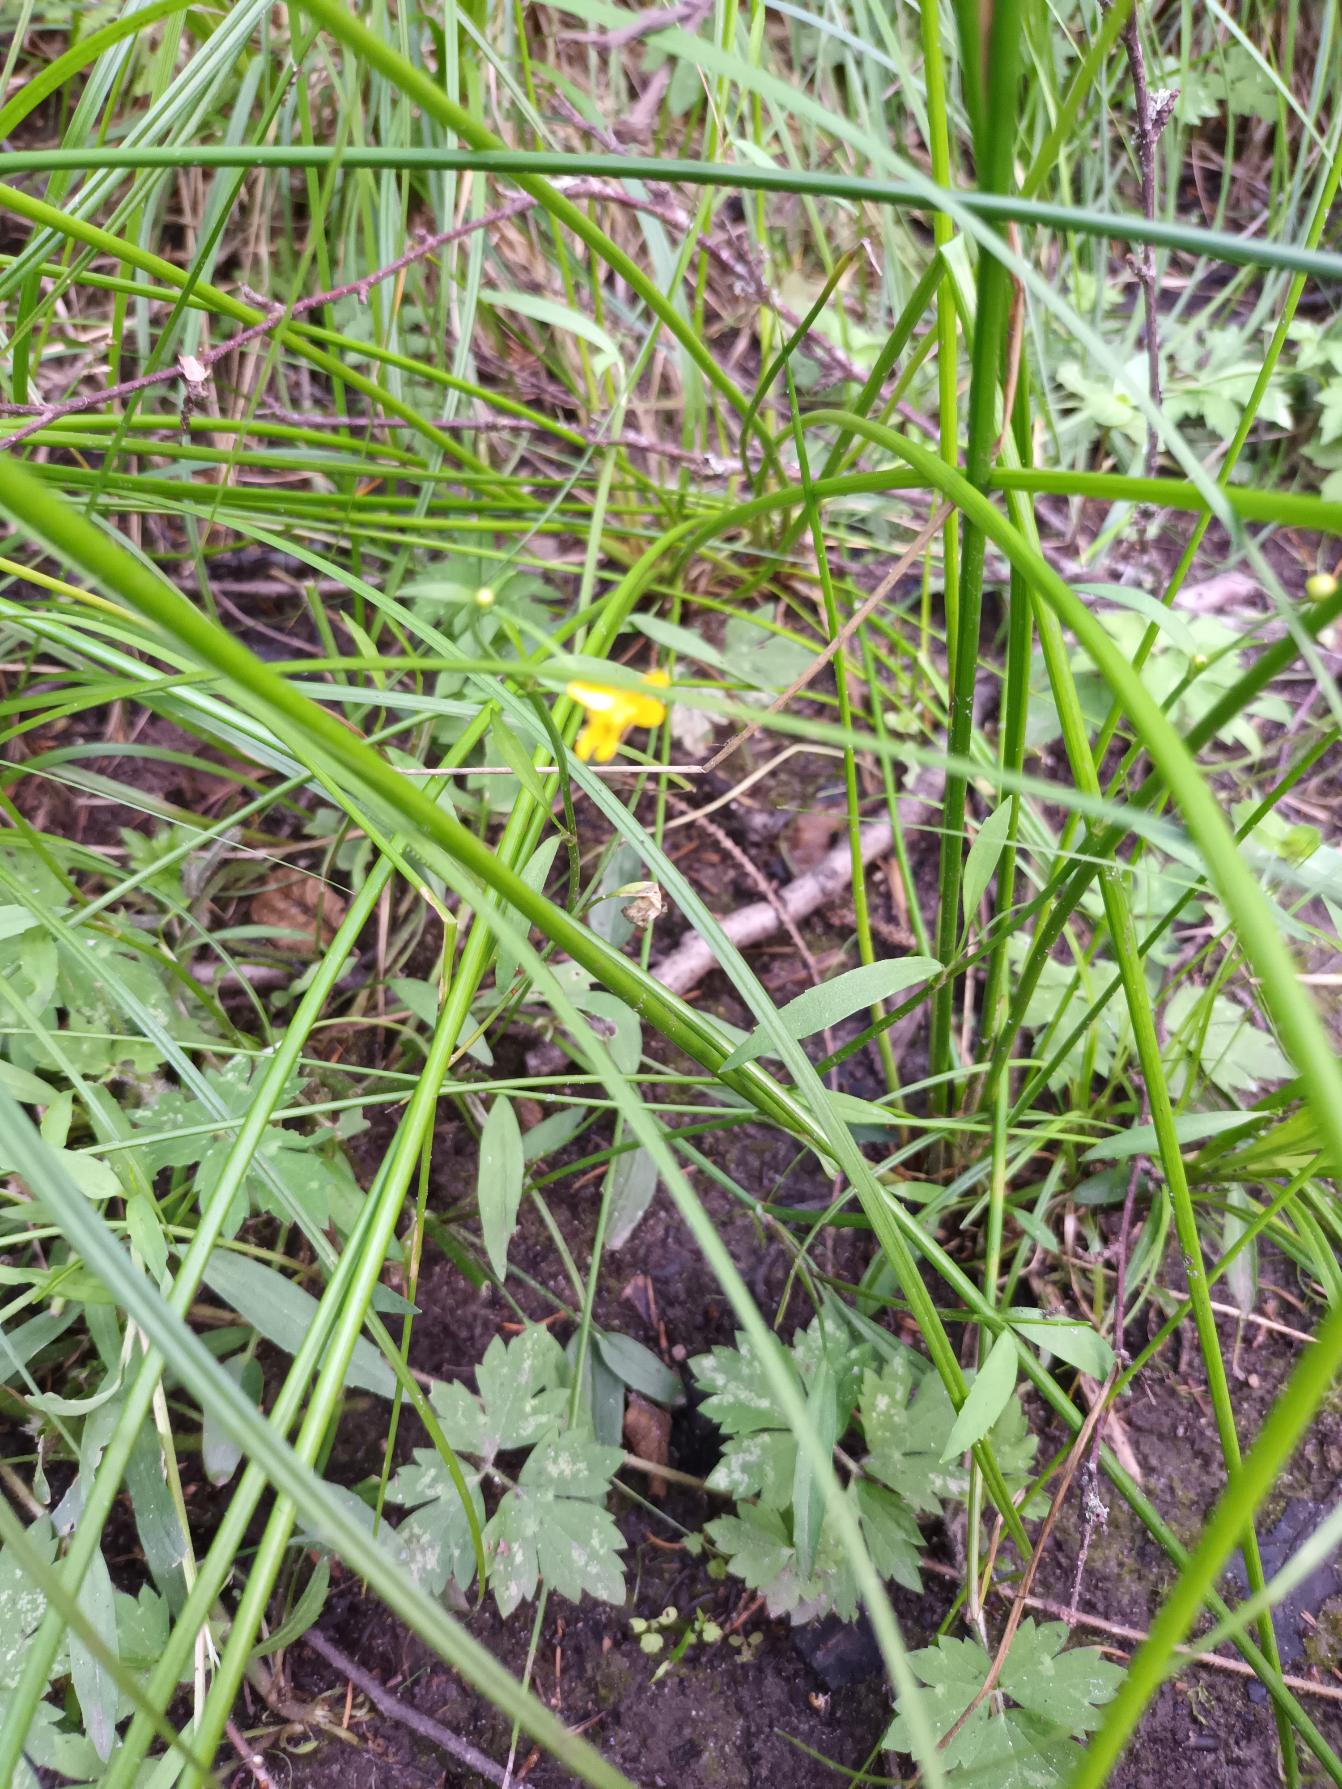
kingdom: Plantae
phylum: Tracheophyta
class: Magnoliopsida
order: Ranunculales
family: Ranunculaceae
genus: Ranunculus
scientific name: Ranunculus flammula
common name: Kær-ranunkel
